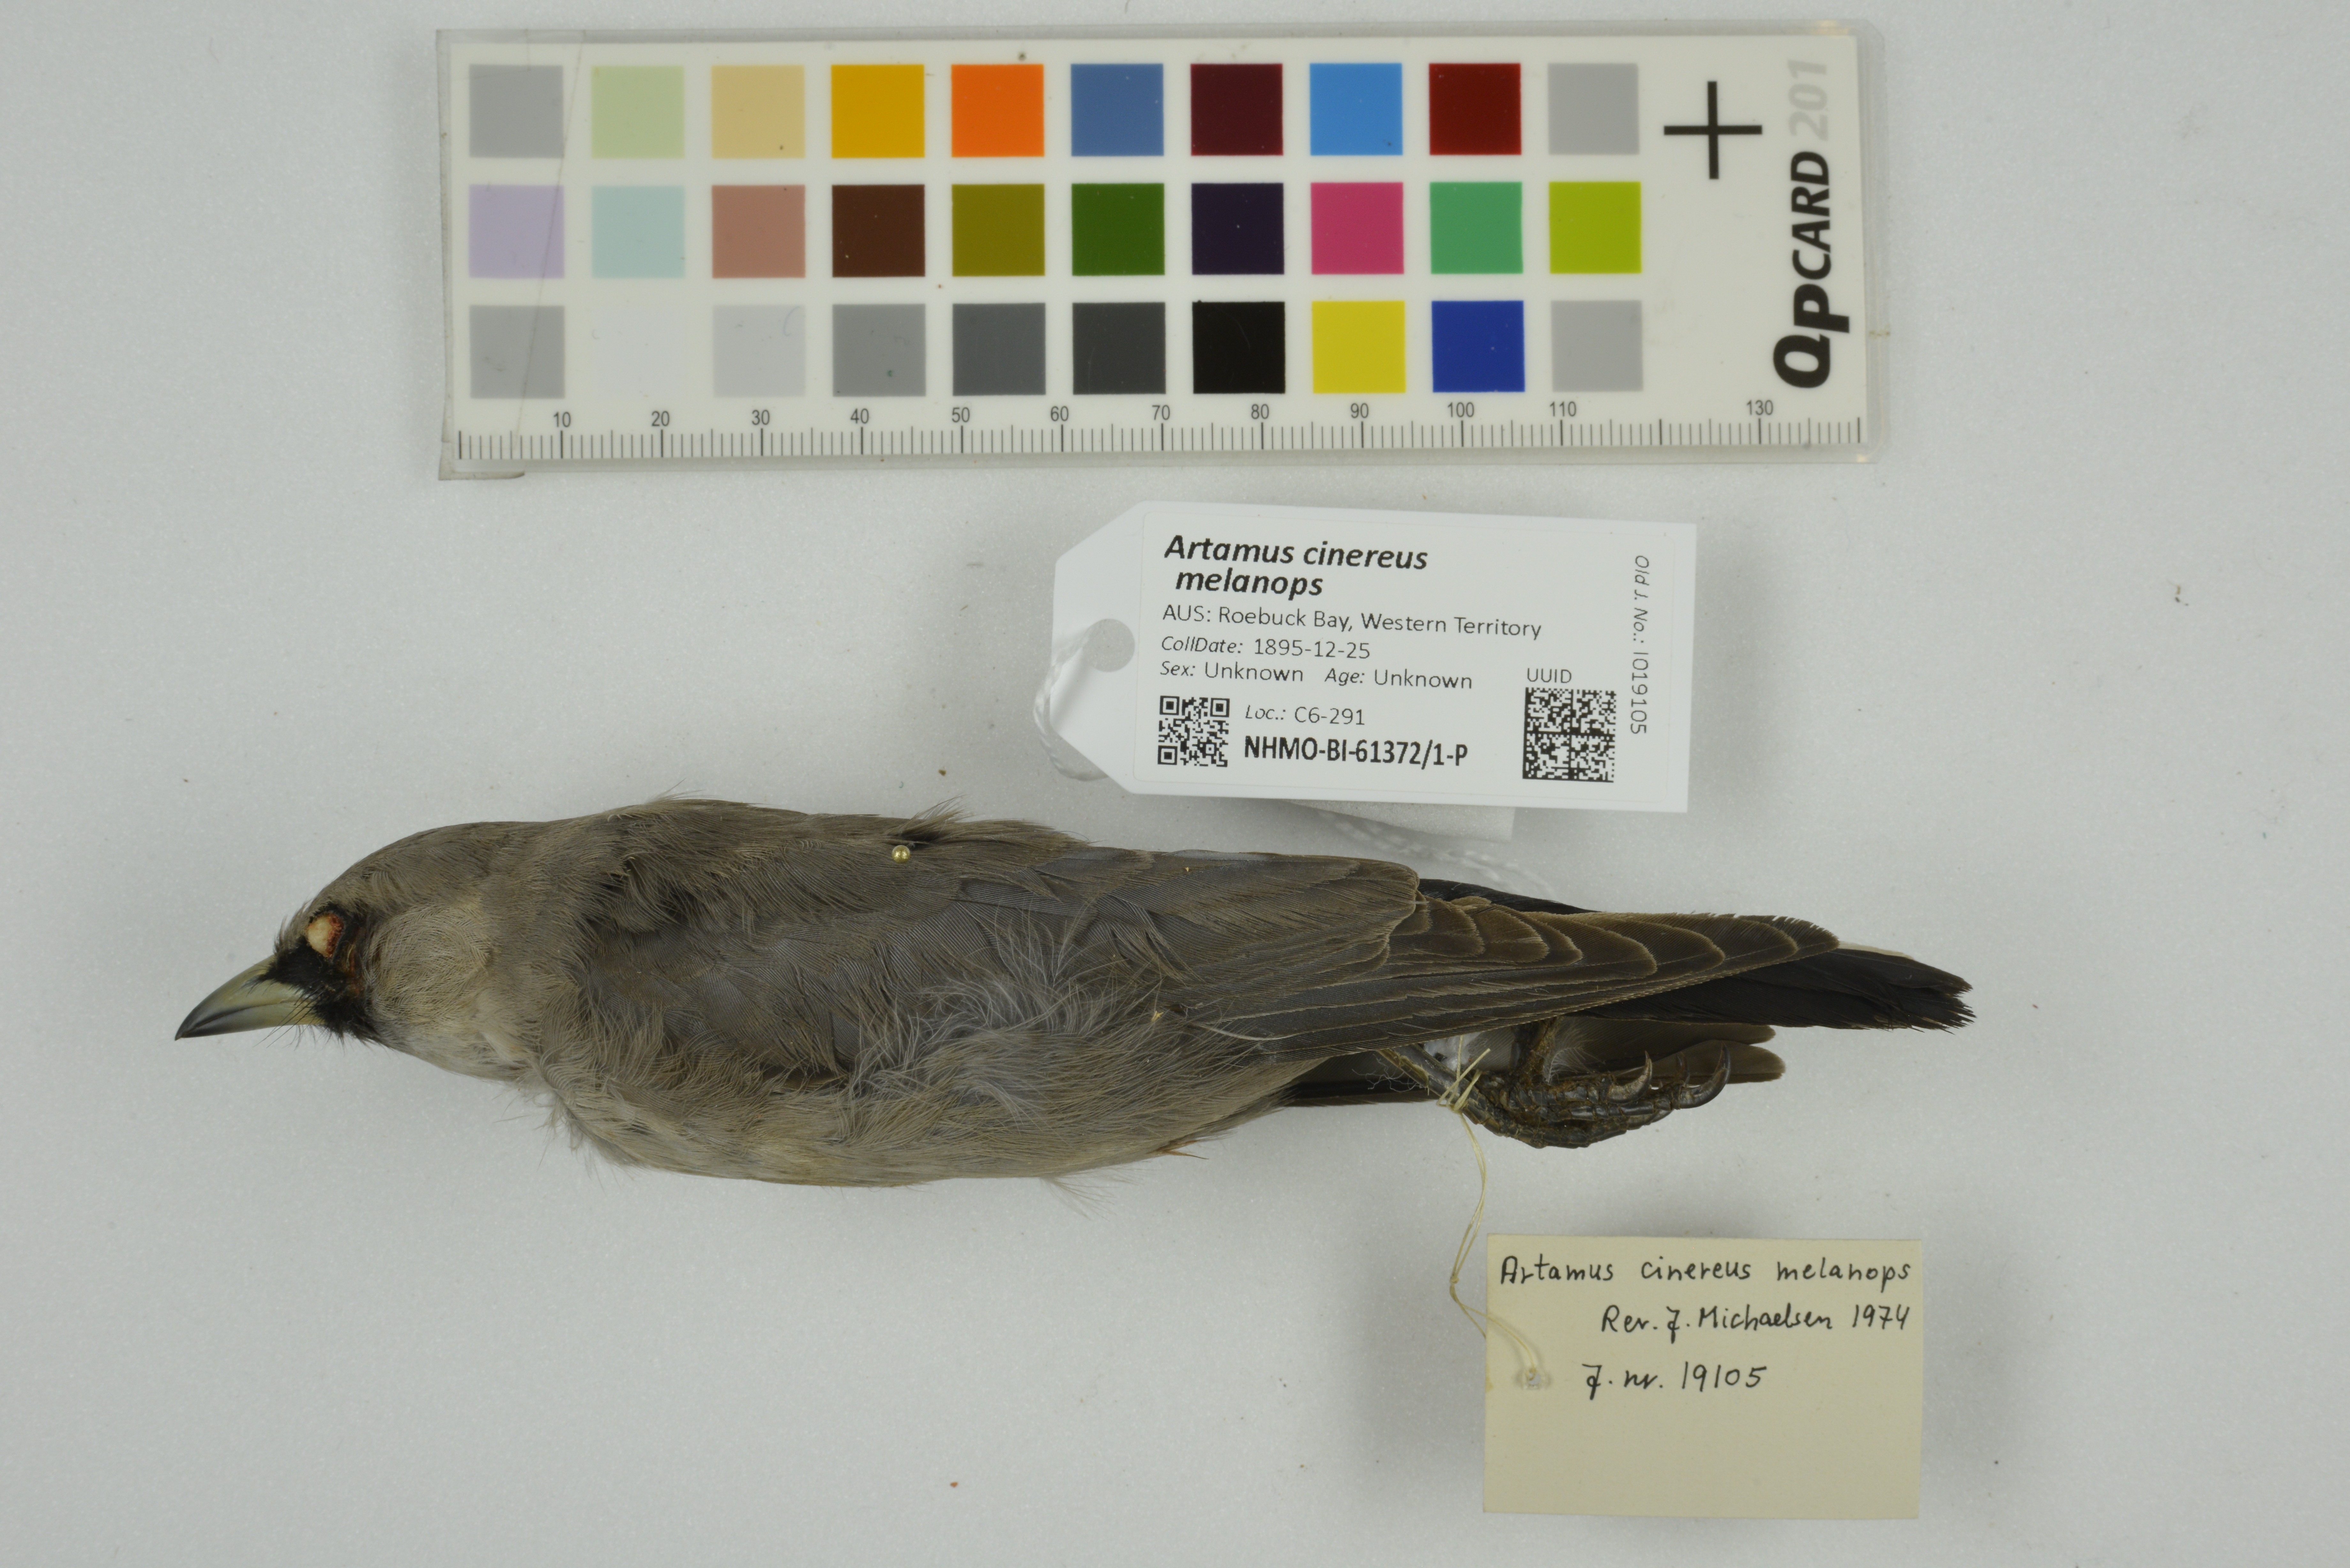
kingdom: Animalia
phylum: Chordata
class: Aves
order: Passeriformes
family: Artamidae
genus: Artamus
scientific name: Artamus cinereus
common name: Black-faced woodswallow
